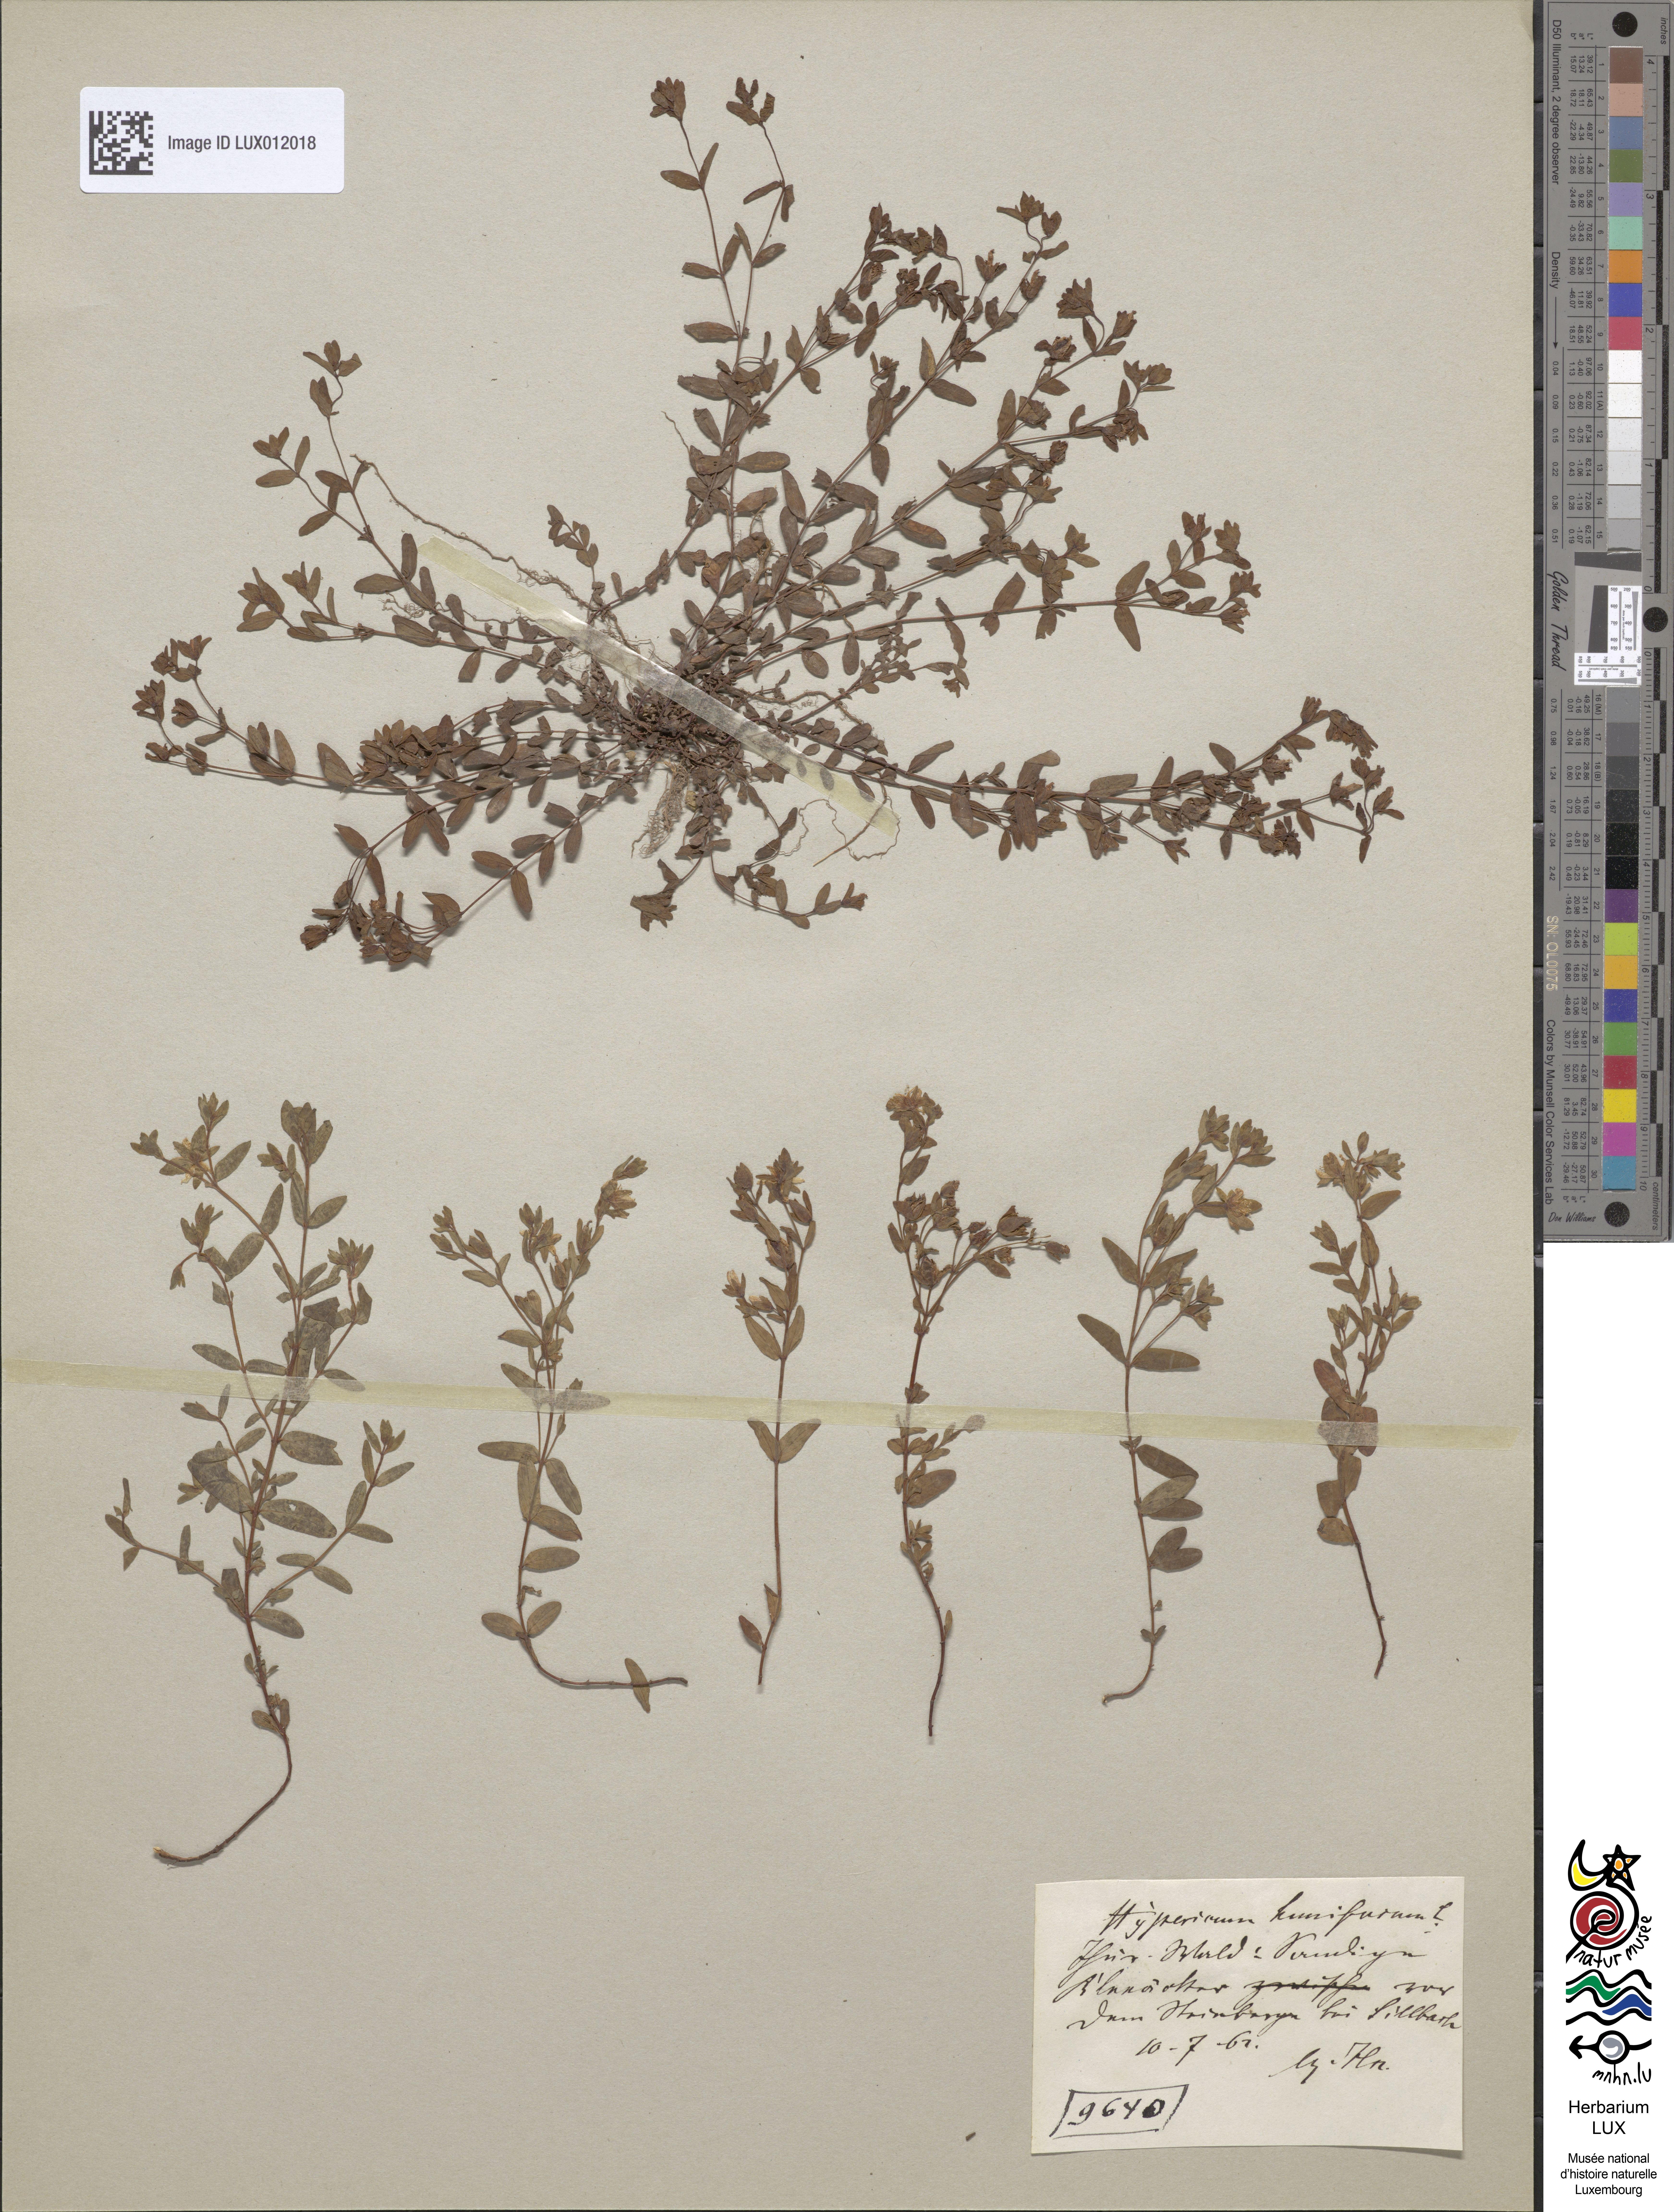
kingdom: Plantae
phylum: Tracheophyta
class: Magnoliopsida
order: Malpighiales
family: Hypericaceae
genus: Hypericum
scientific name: Hypericum humifusum
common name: Trailing st. john's-wort
